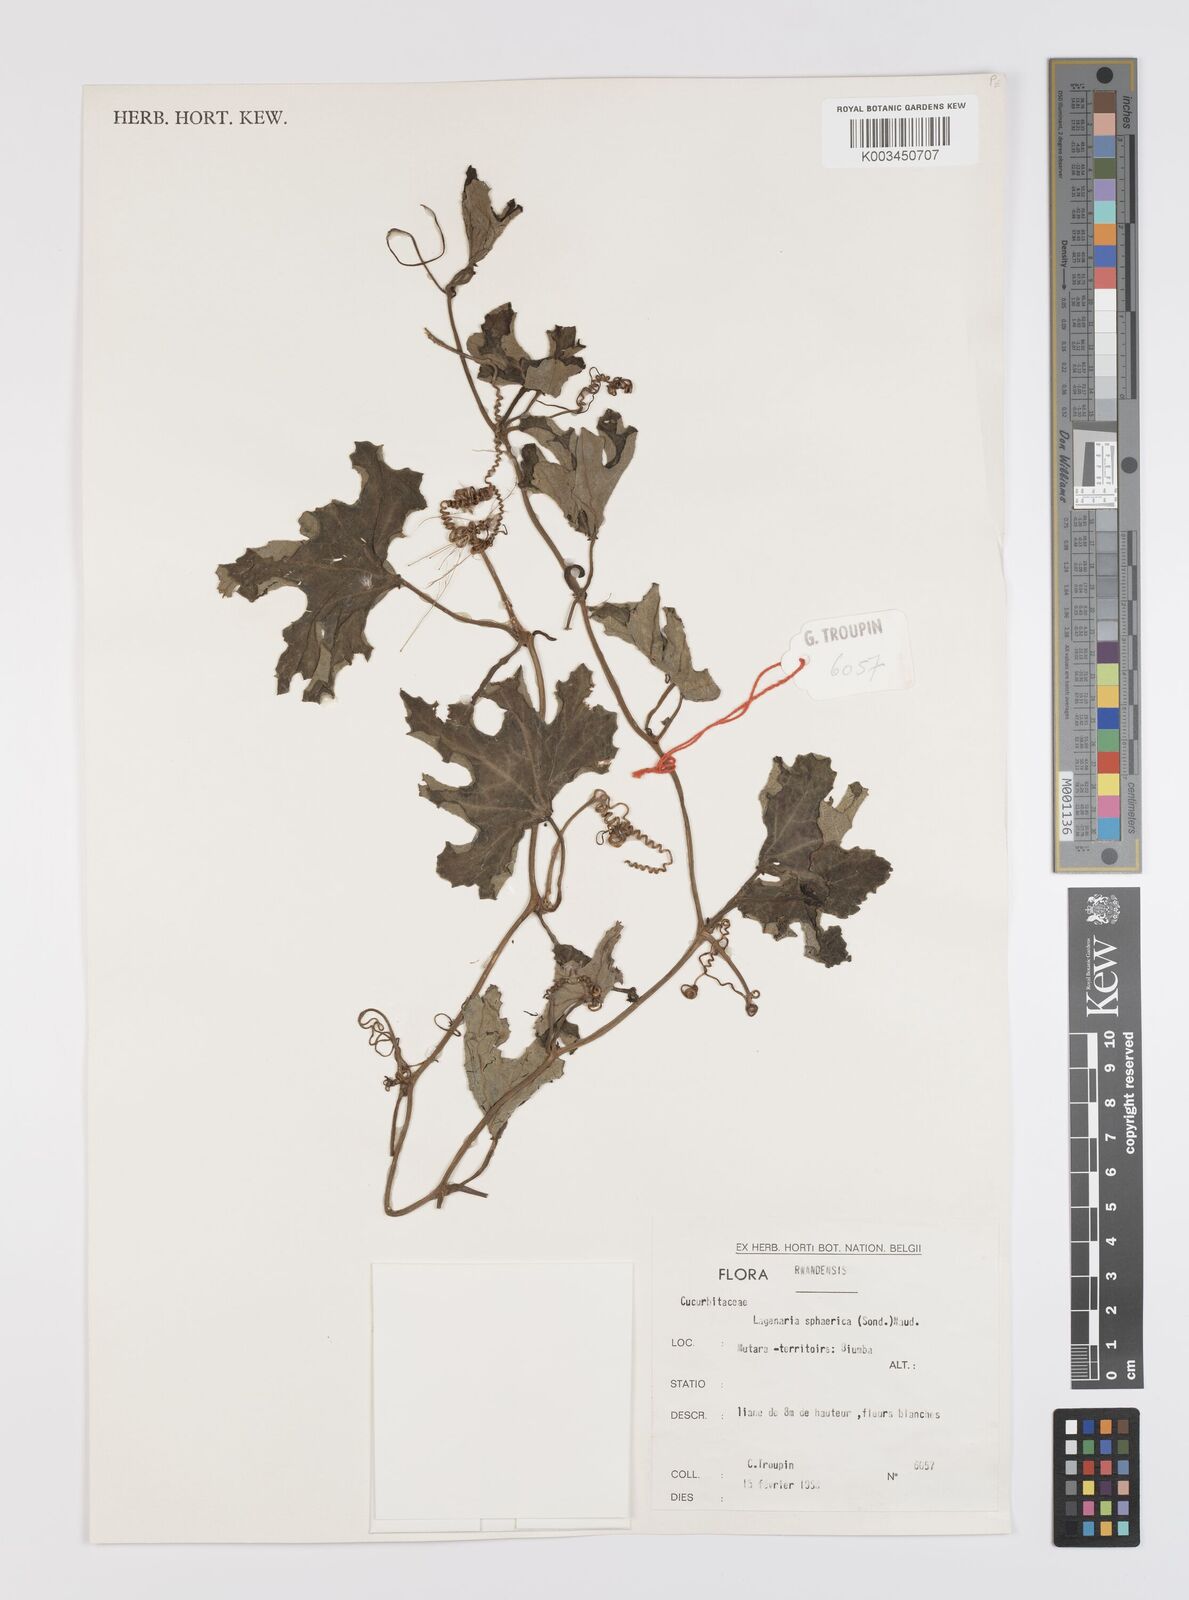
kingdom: Plantae
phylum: Tracheophyta
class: Magnoliopsida
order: Cucurbitales
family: Cucurbitaceae
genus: Lagenaria
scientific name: Lagenaria sphaerica
